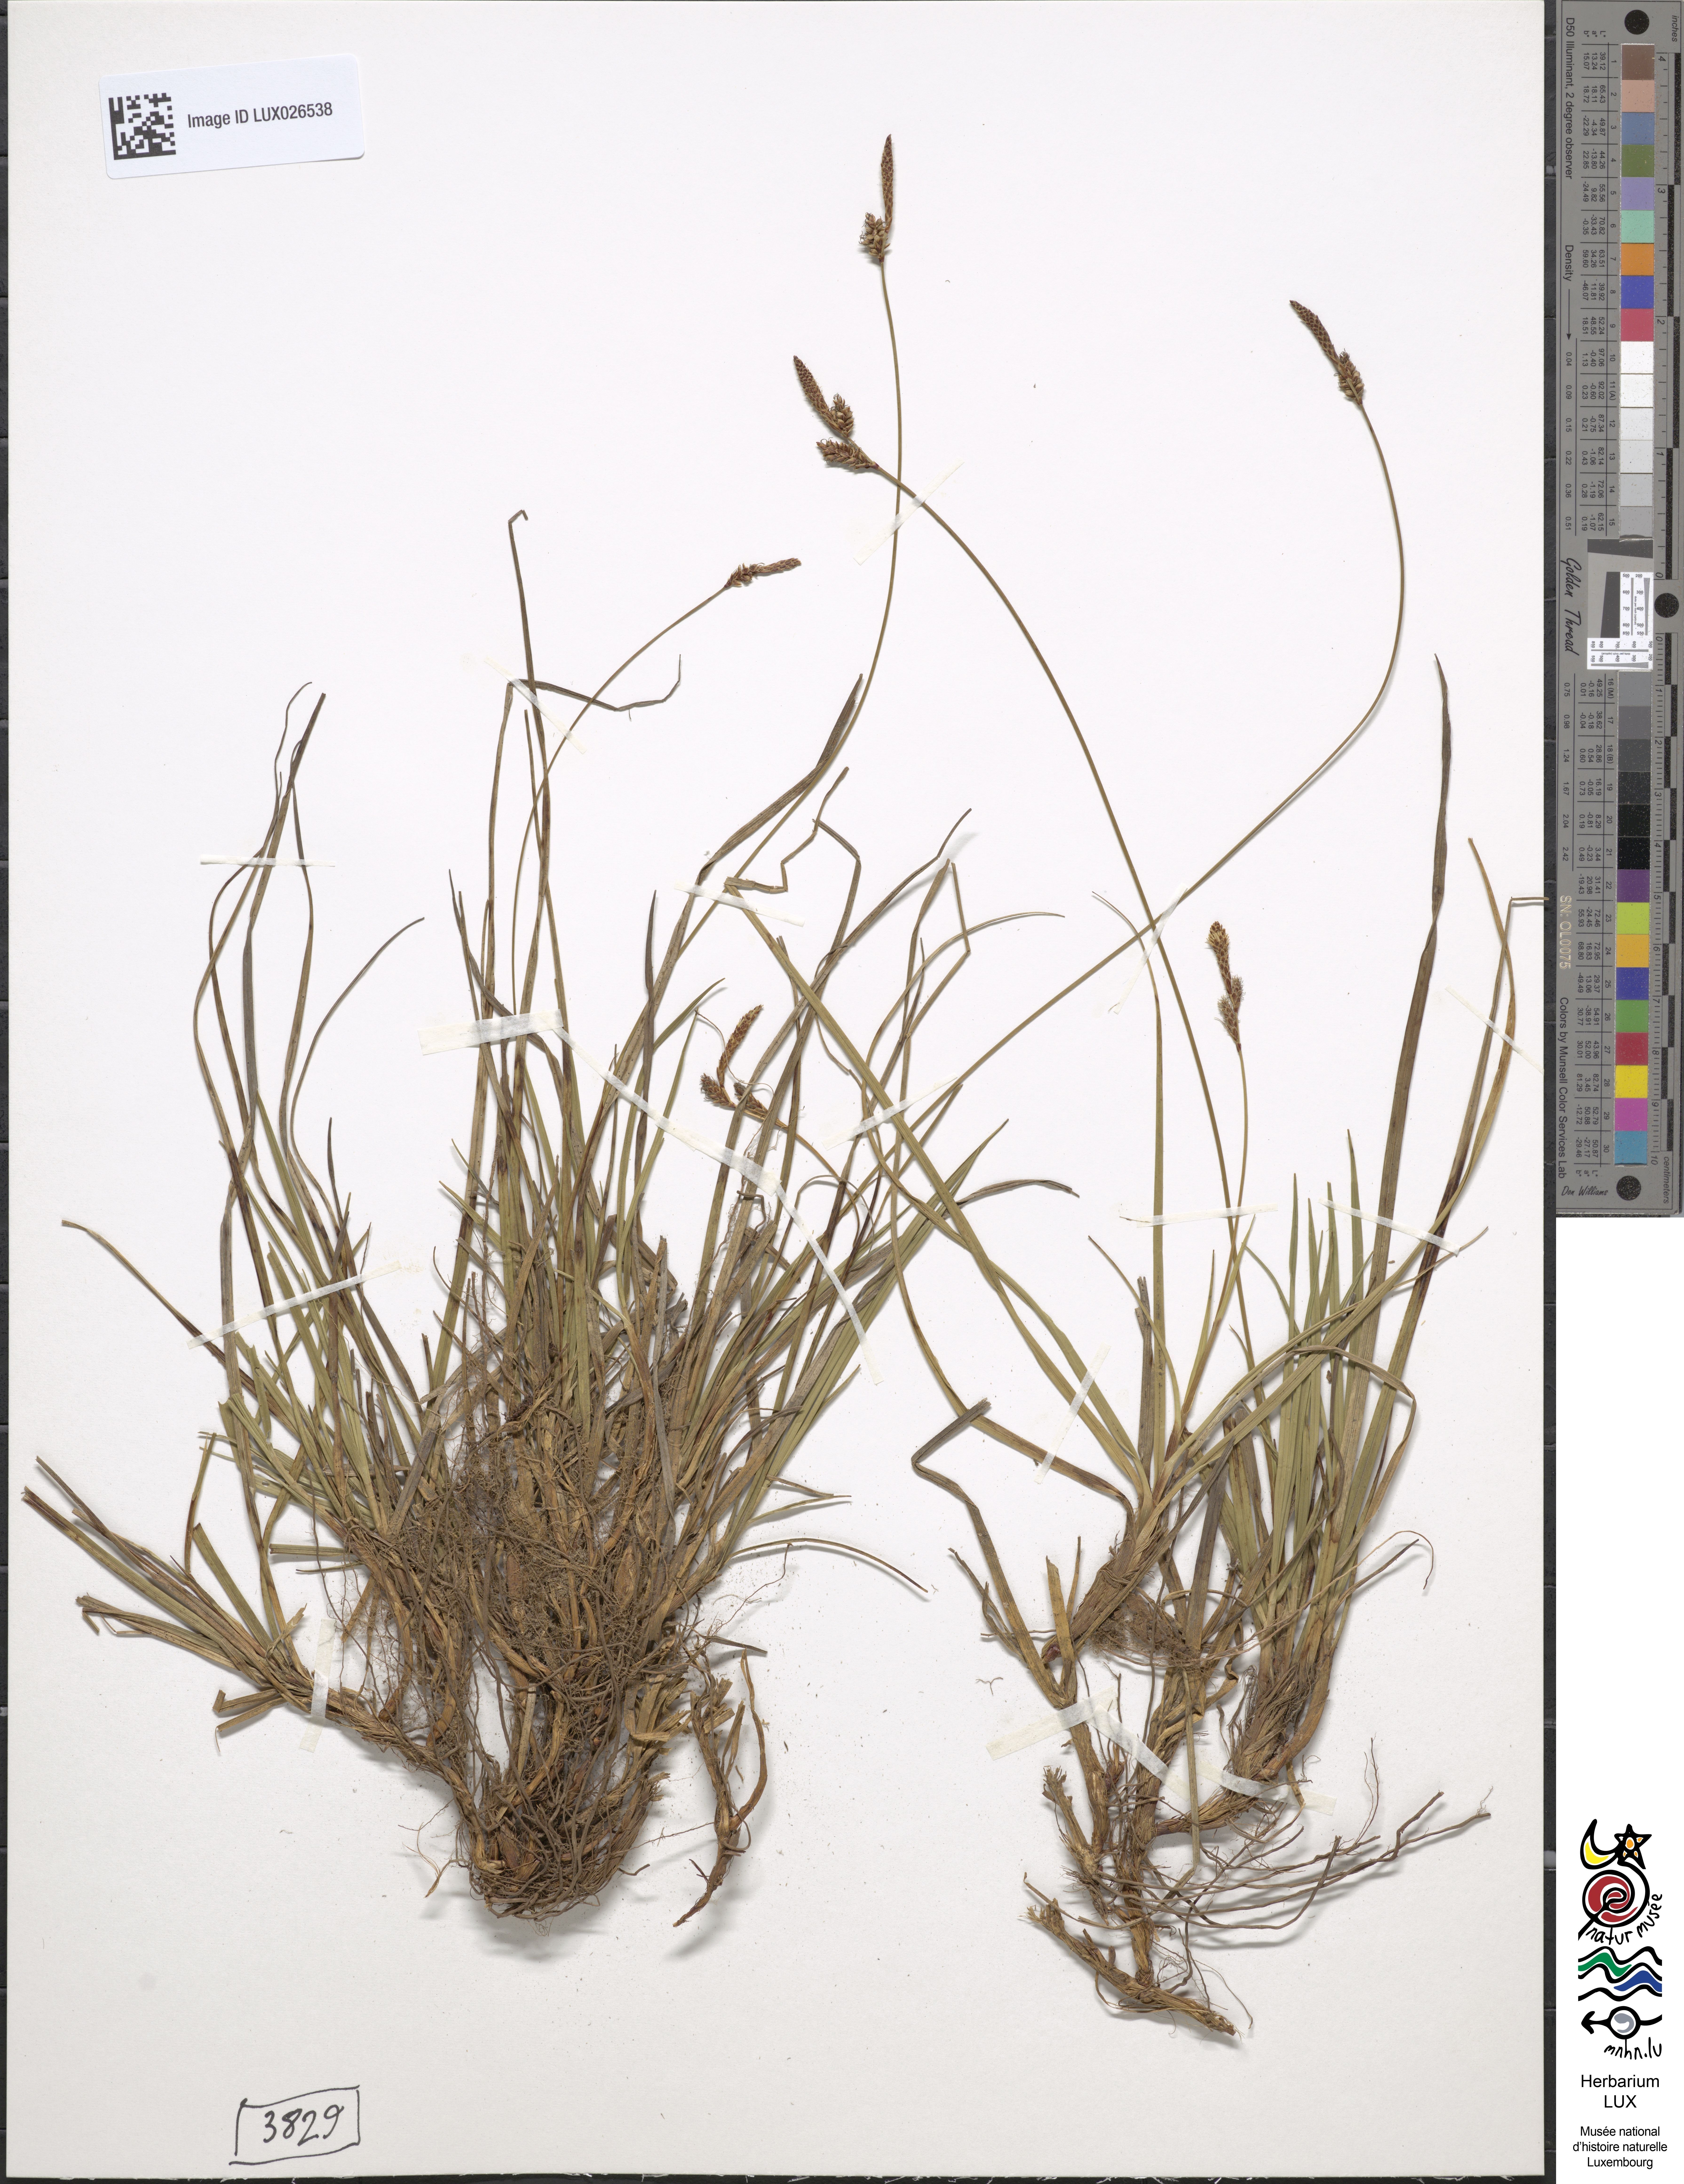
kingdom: Plantae
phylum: Tracheophyta
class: Liliopsida
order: Poales
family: Cyperaceae
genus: Carex
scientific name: Carex ericetorum
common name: Rare spring-sedge
